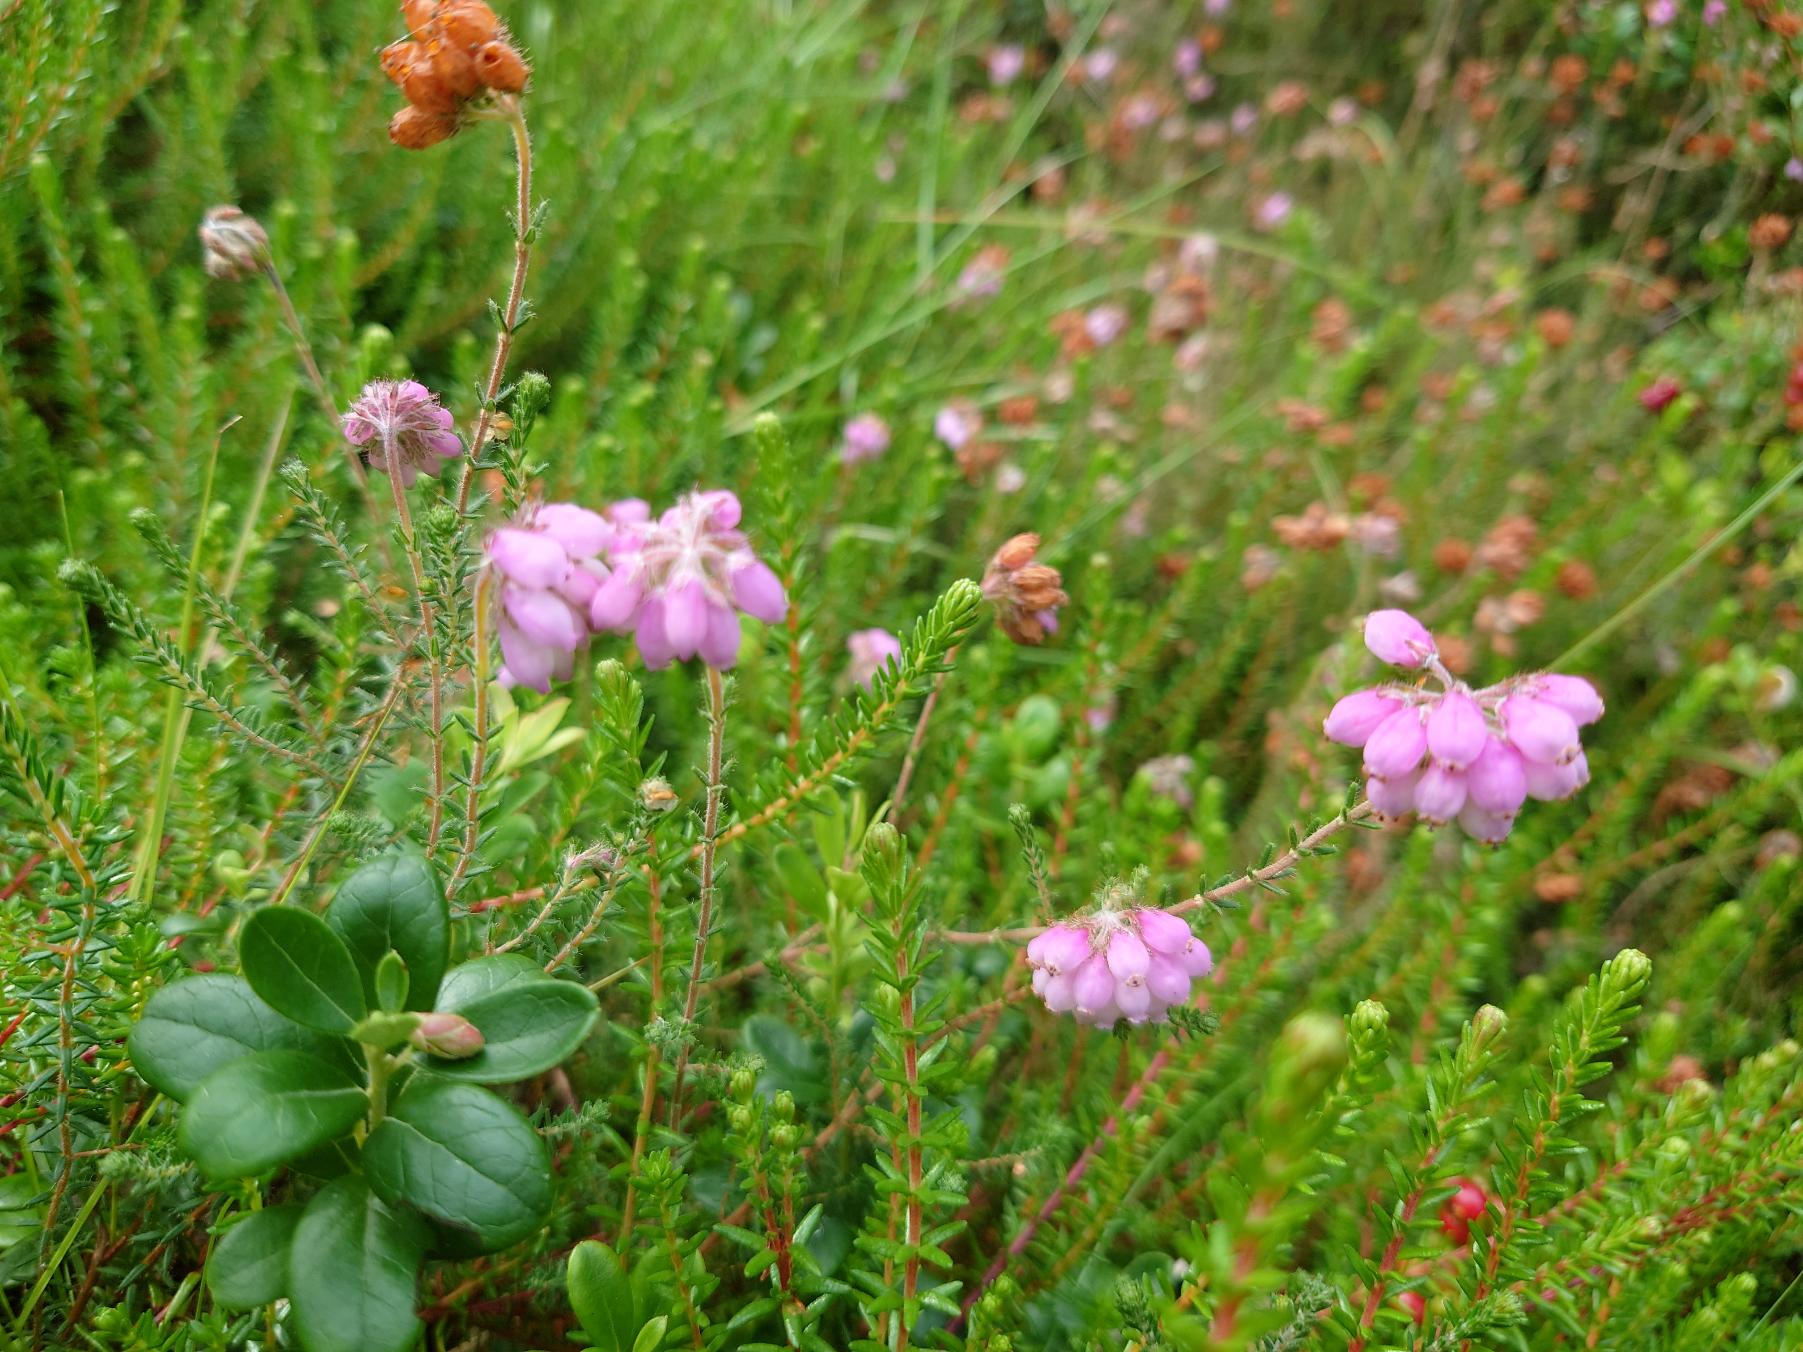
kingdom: Plantae
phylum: Tracheophyta
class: Magnoliopsida
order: Ericales
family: Ericaceae
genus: Erica
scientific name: Erica tetralix
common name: Klokkelyng
